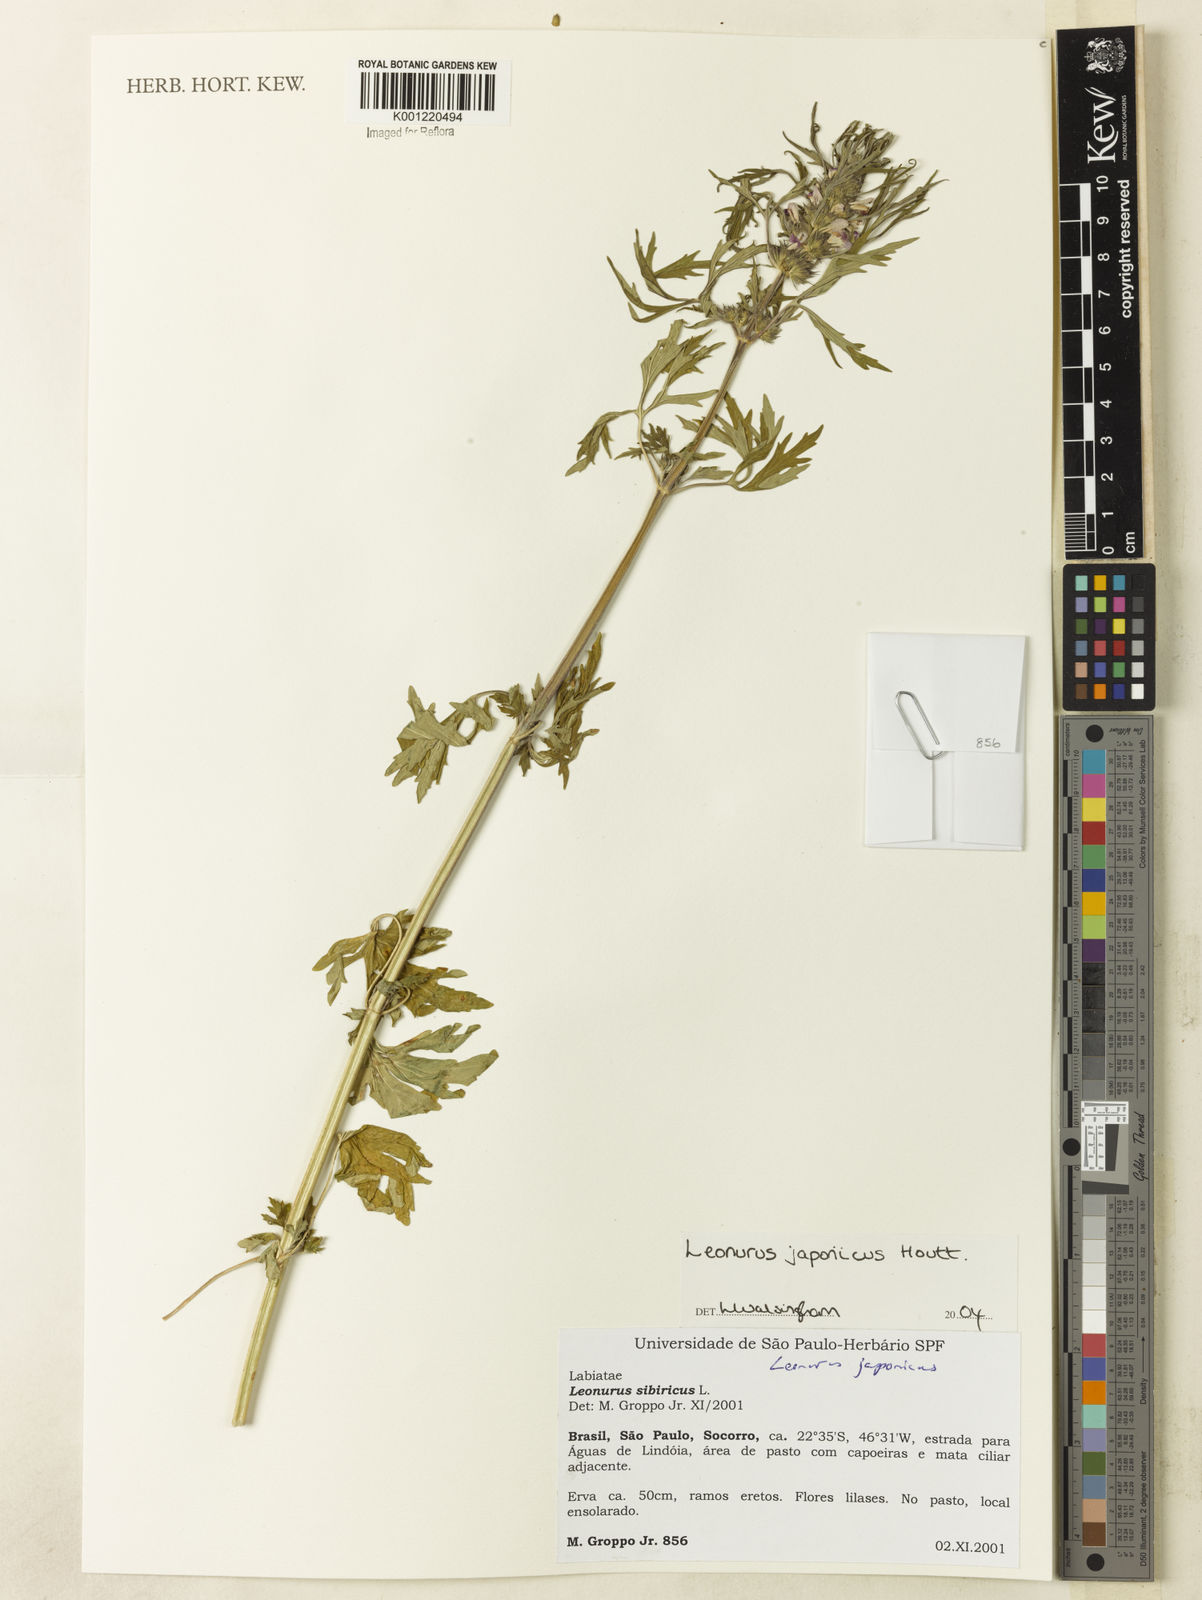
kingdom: Plantae
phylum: Tracheophyta
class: Magnoliopsida
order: Lamiales
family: Lamiaceae
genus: Leonurus
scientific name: Leonurus japonicus
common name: Honeyweed
